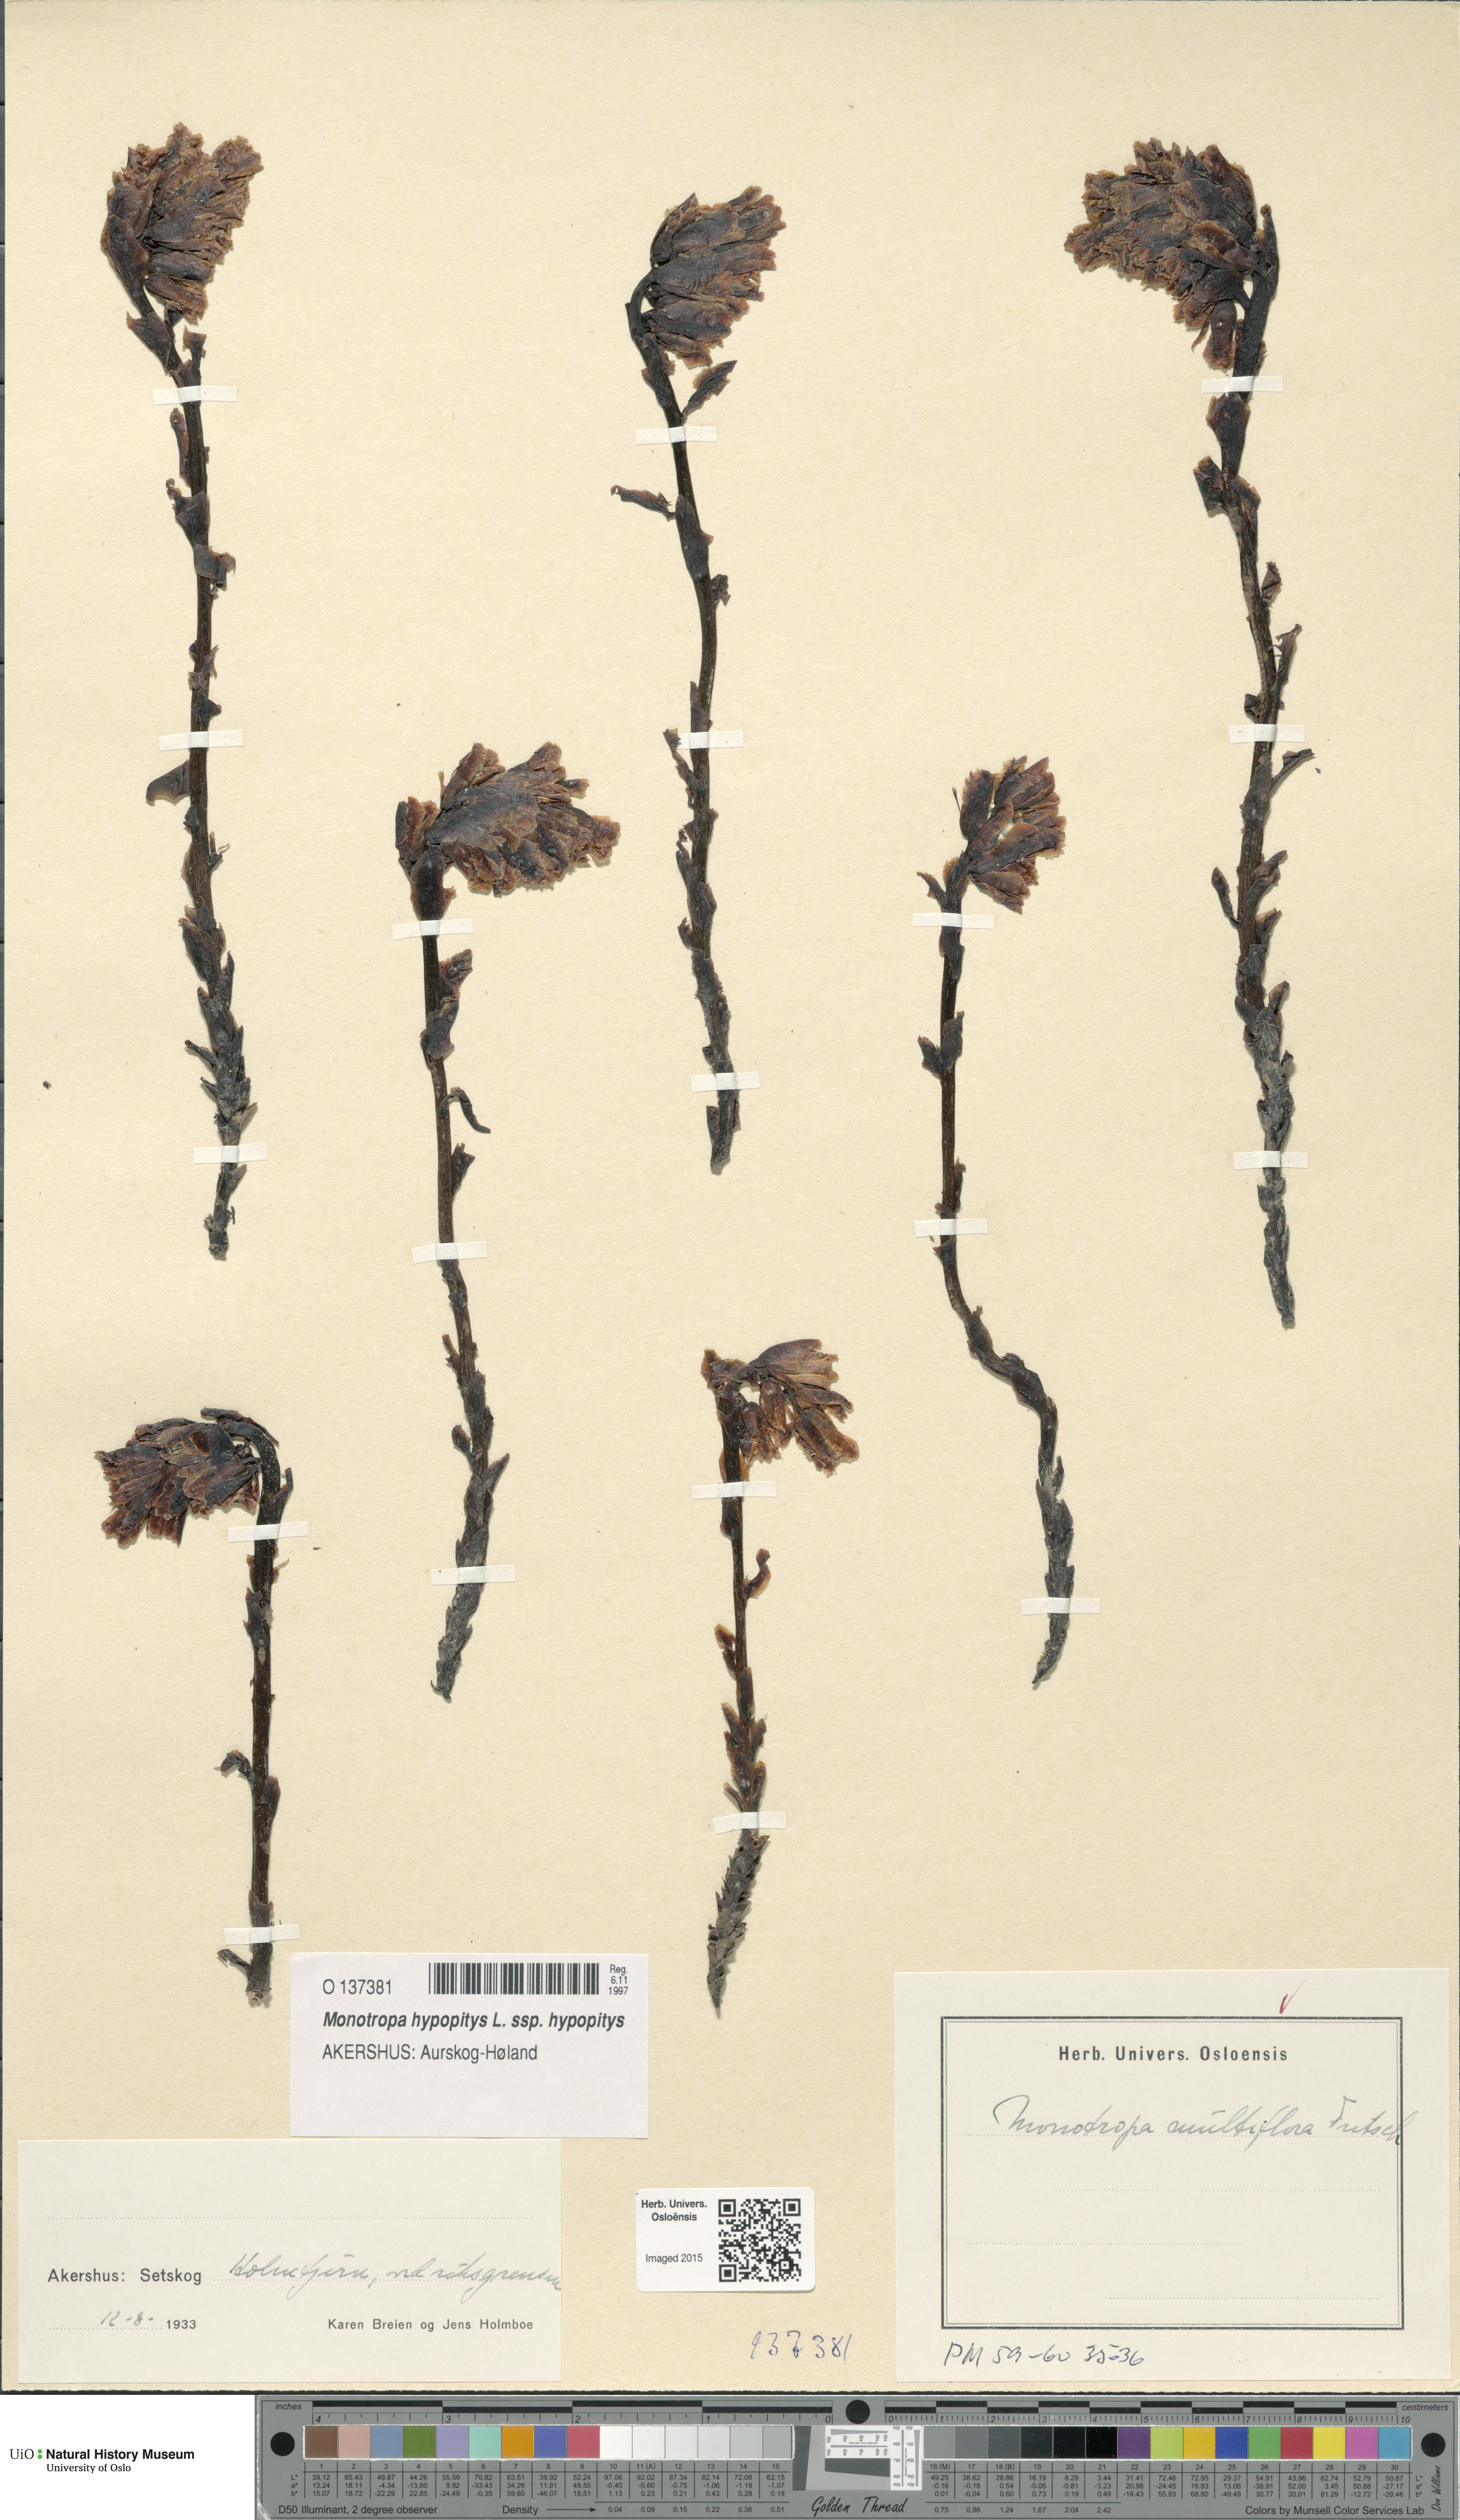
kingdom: Plantae
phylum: Tracheophyta
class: Magnoliopsida
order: Ericales
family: Ericaceae
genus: Hypopitys
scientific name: Hypopitys monotropa
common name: Yellow bird's-nest
